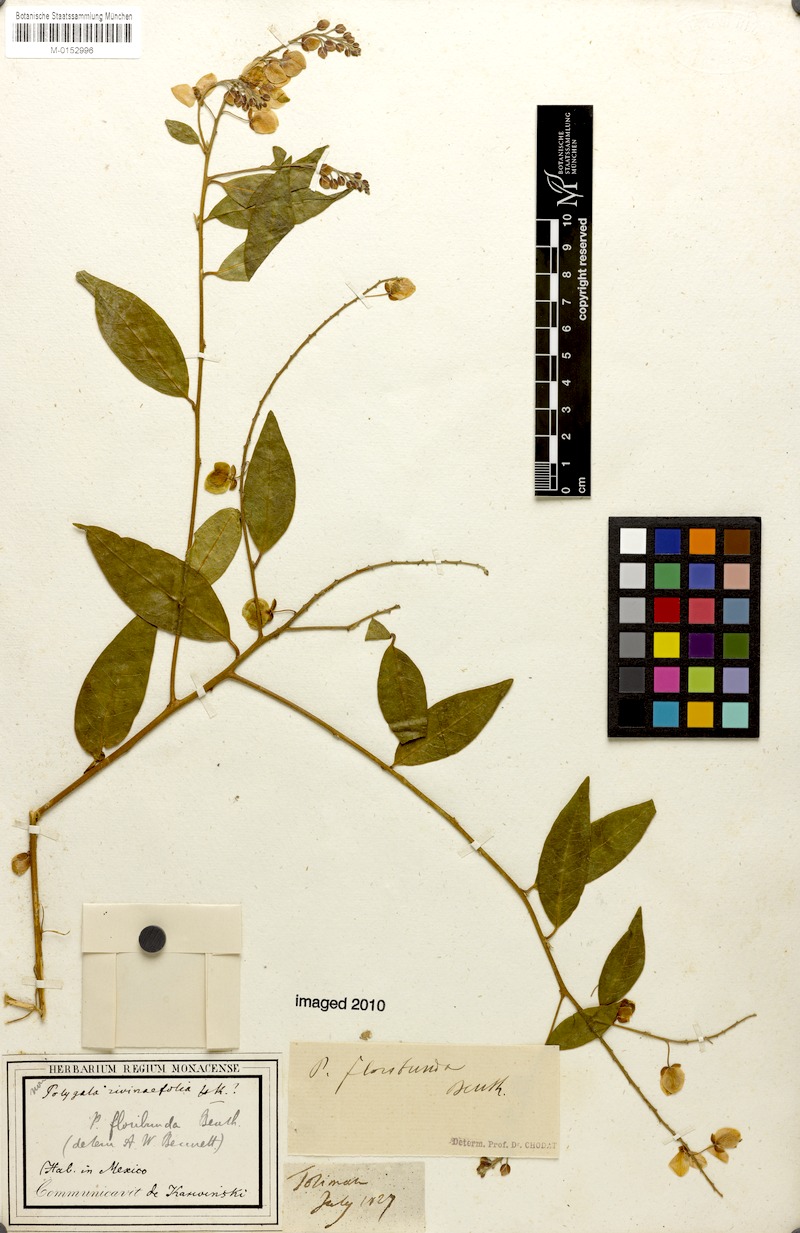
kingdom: Plantae
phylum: Tracheophyta
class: Magnoliopsida
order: Fabales
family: Polygalaceae
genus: Asemeia
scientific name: Asemeia floribunda
